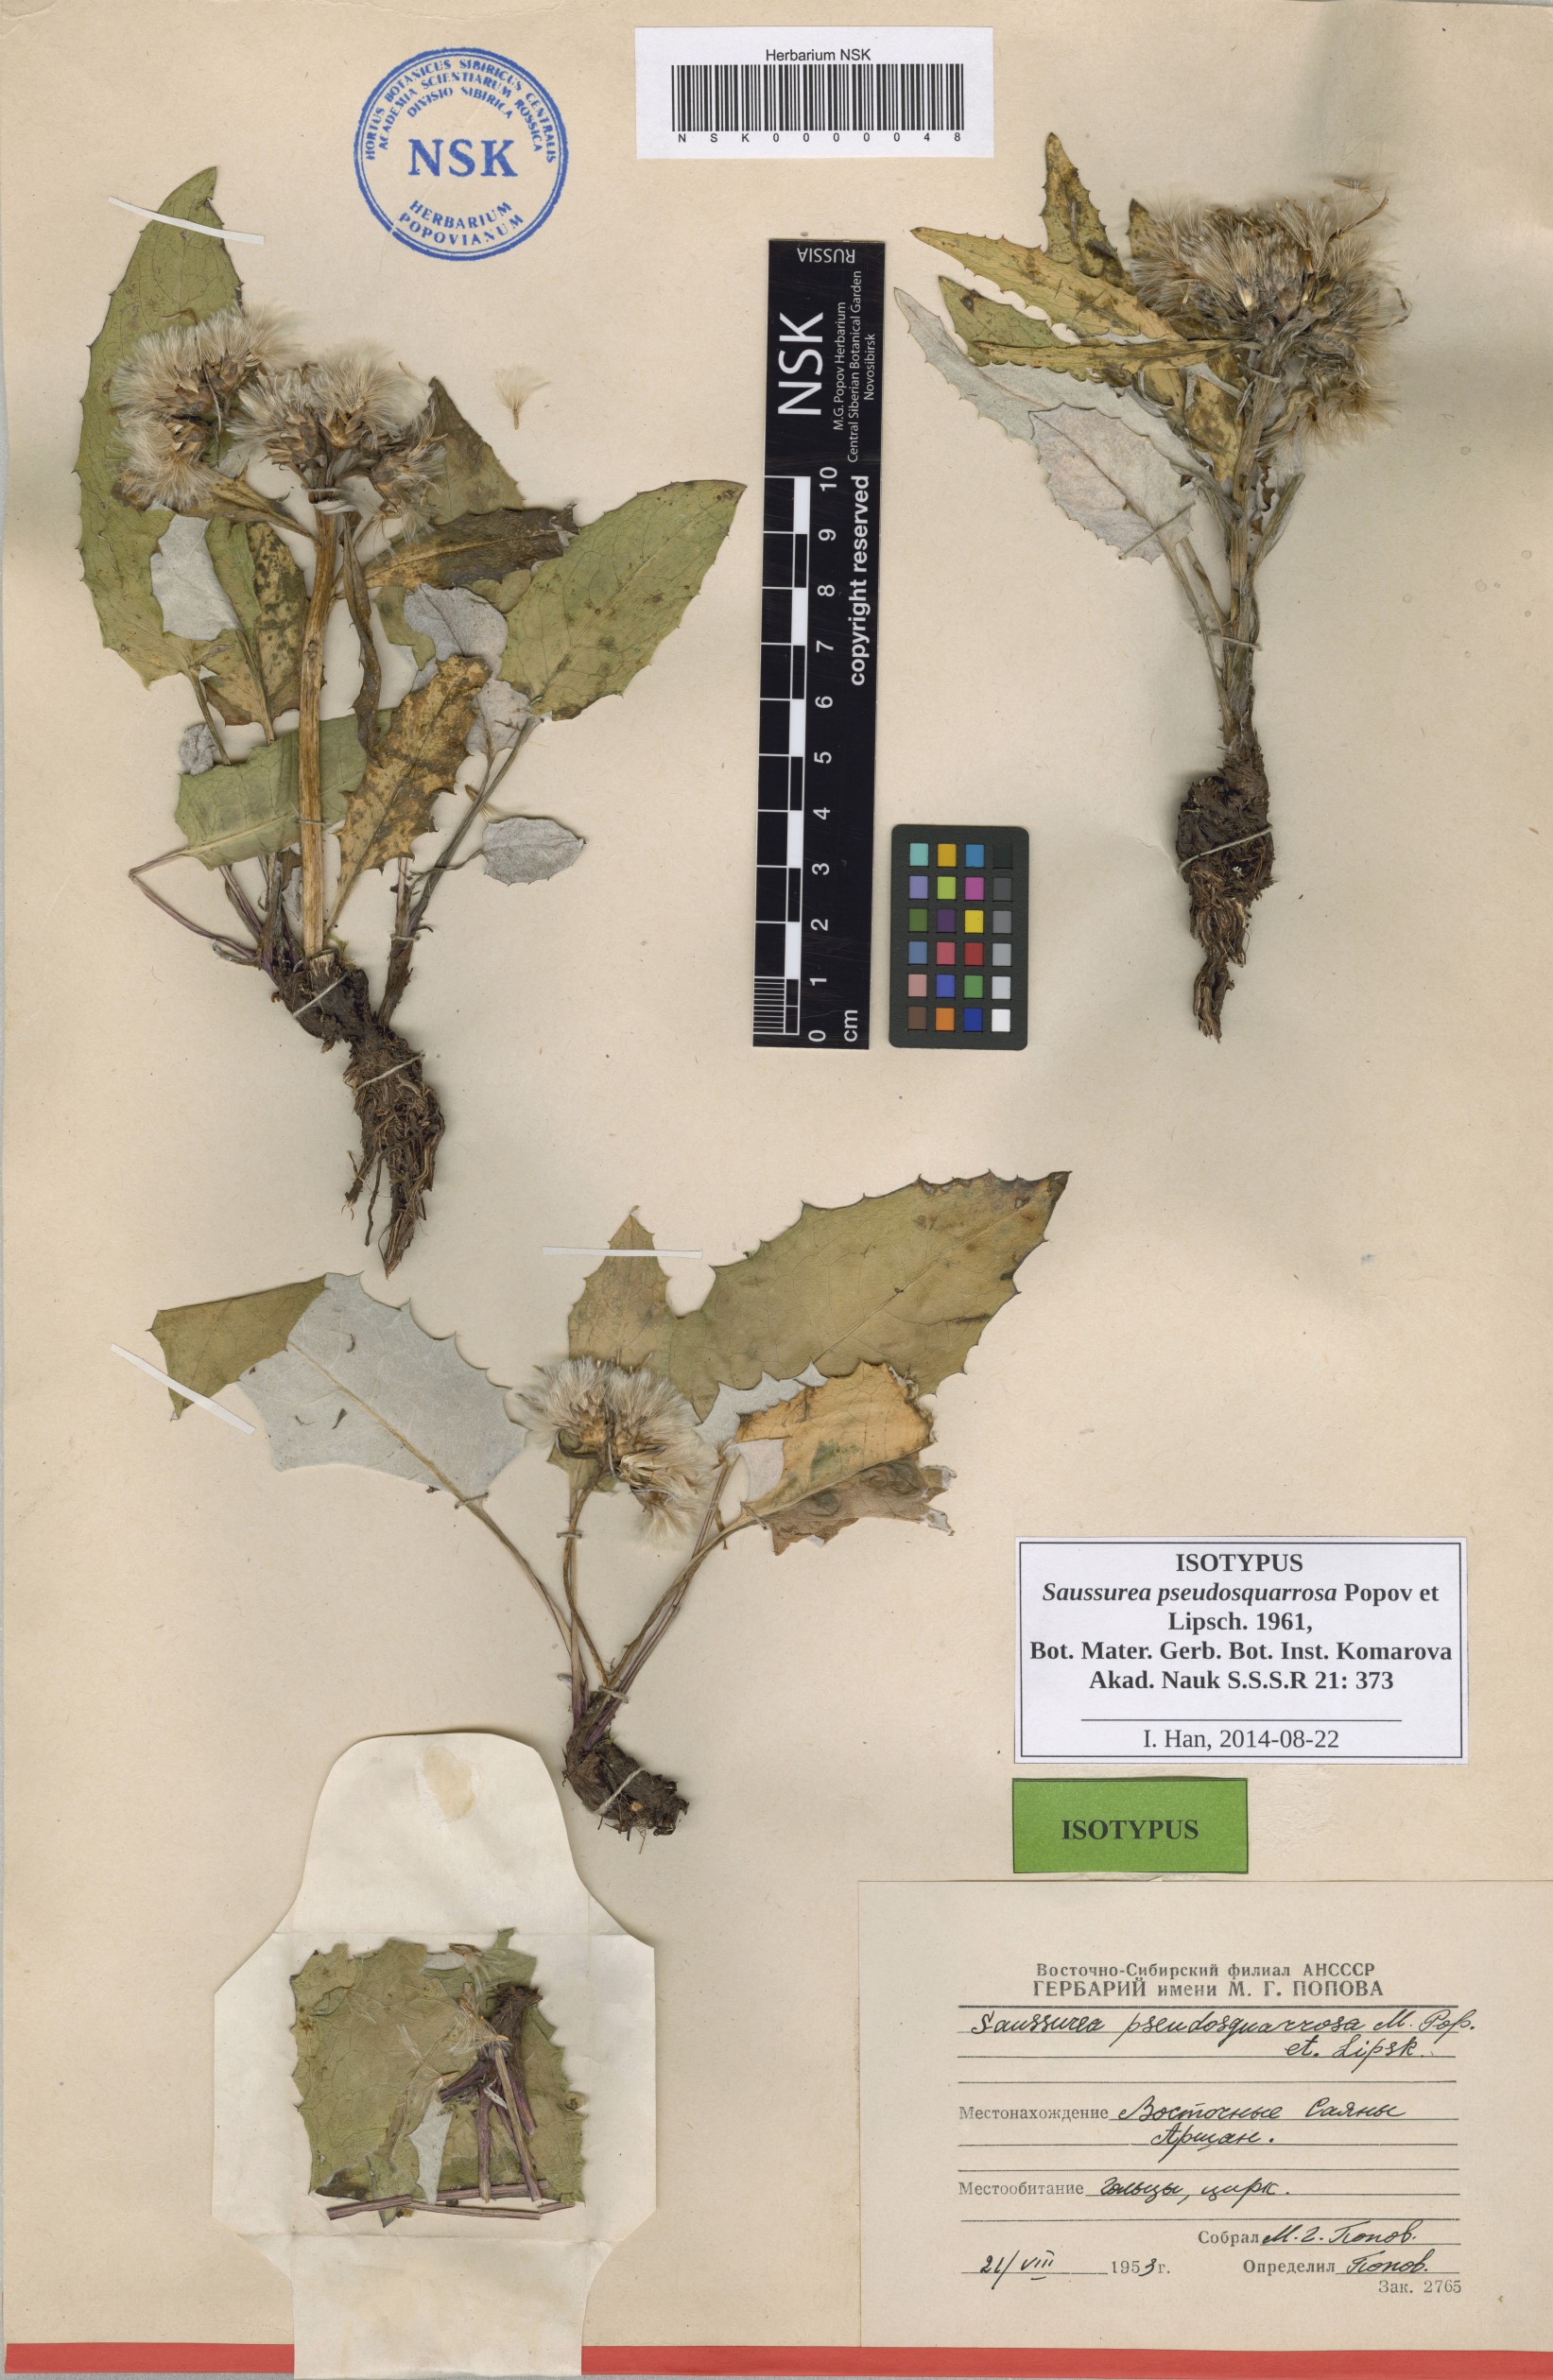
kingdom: Plantae
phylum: Tracheophyta
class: Magnoliopsida
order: Asterales
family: Asteraceae
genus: Saussurea
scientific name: Saussurea pseudosquarrosa
